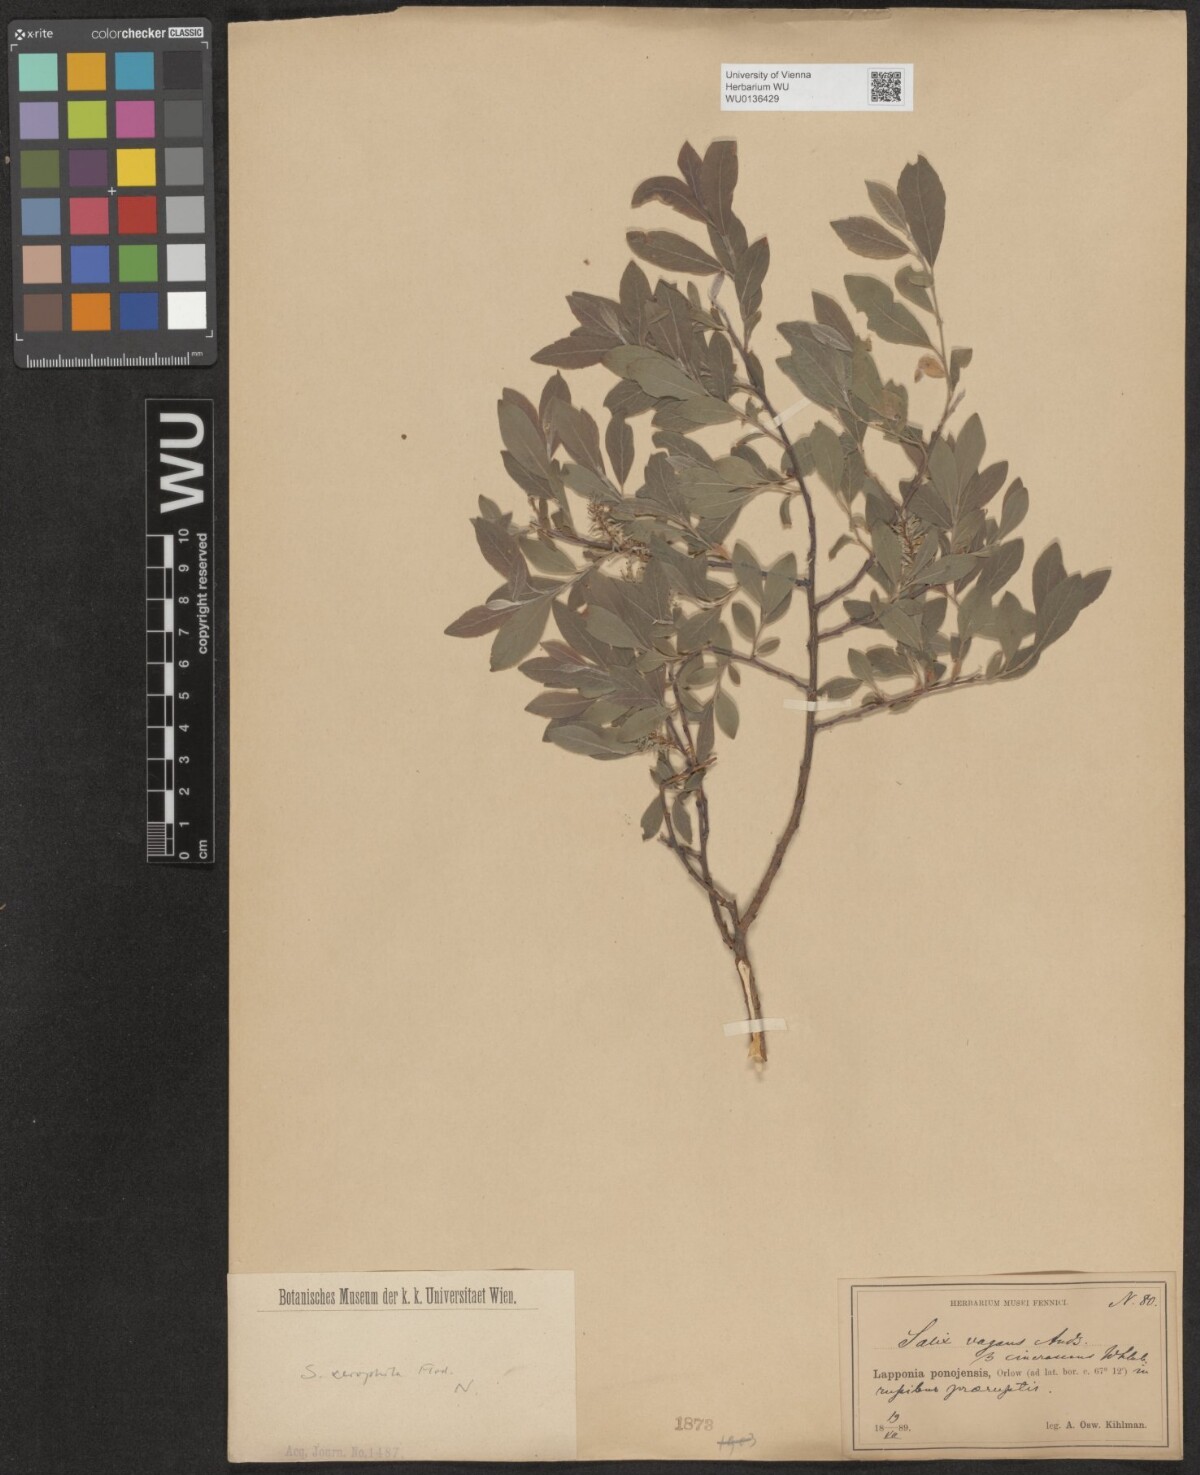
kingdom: Plantae
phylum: Tracheophyta
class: Magnoliopsida
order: Malpighiales
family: Salicaceae
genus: Salix
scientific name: Salix lanata
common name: Woolly willow
